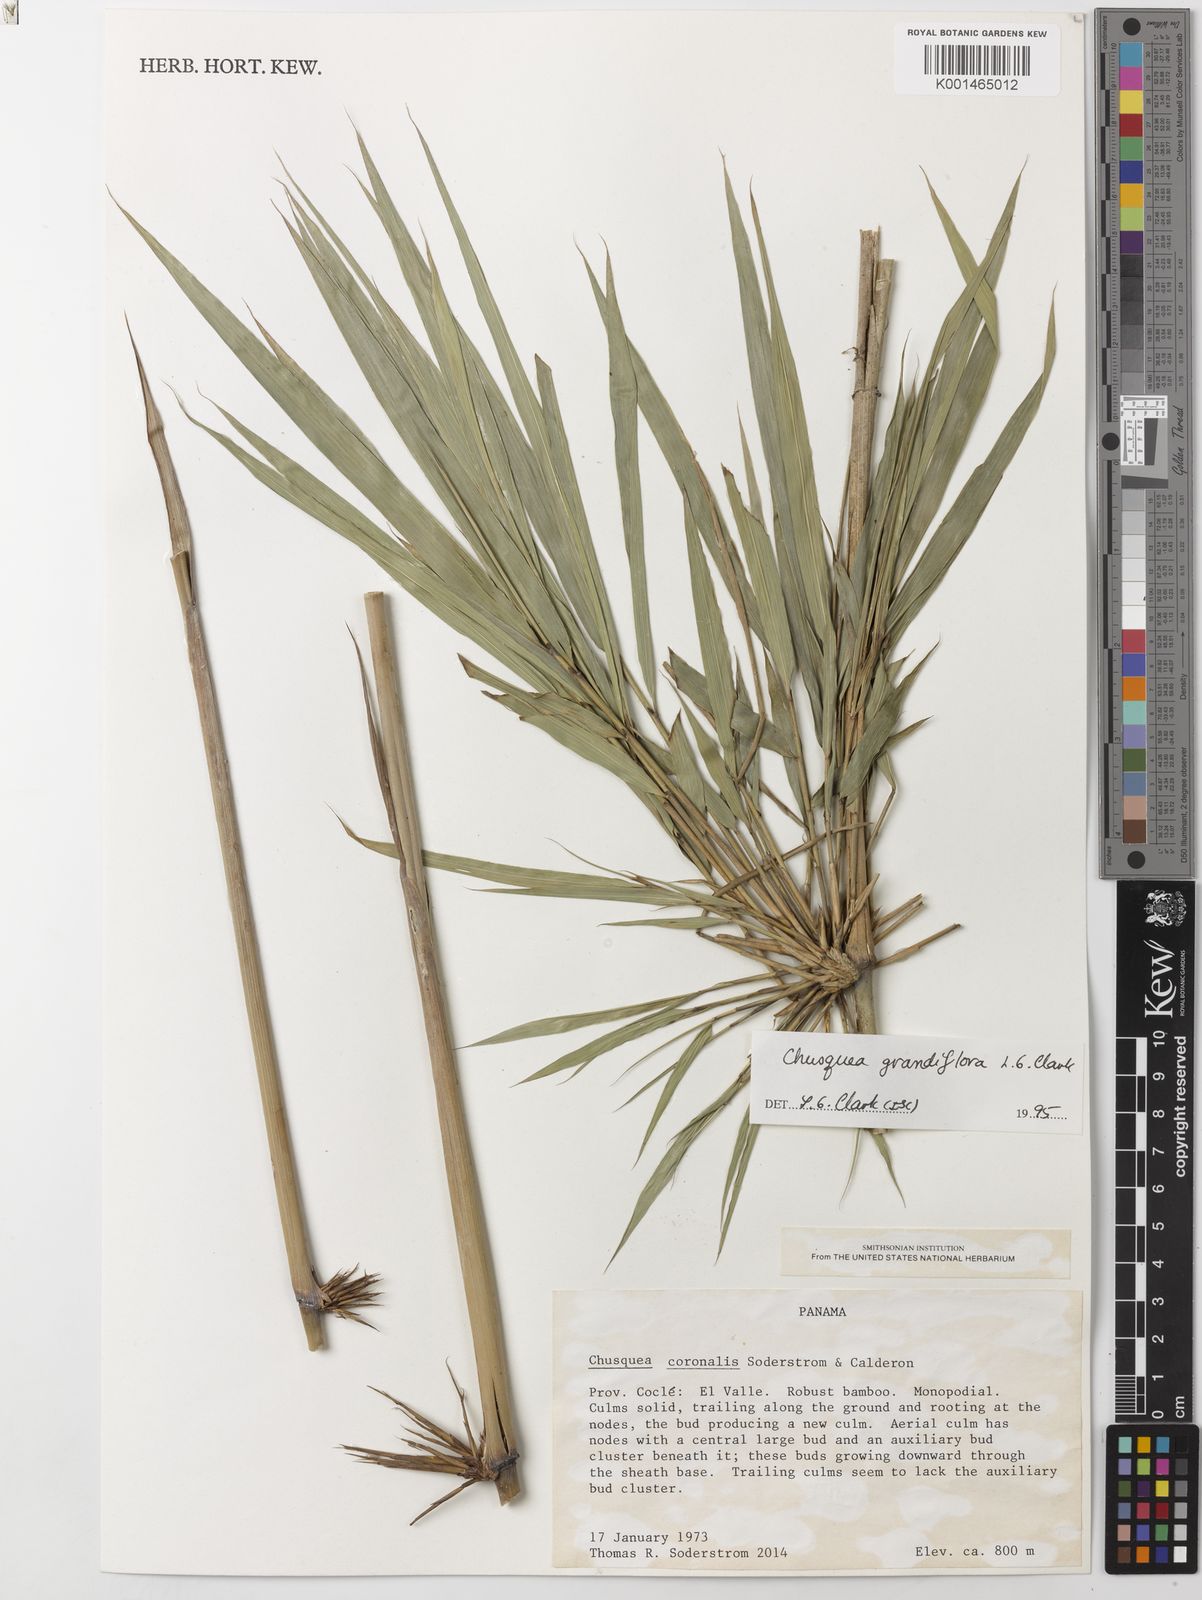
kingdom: Plantae
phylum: Tracheophyta
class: Liliopsida
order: Poales
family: Poaceae
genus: Chusquea
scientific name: Chusquea grandiflora
